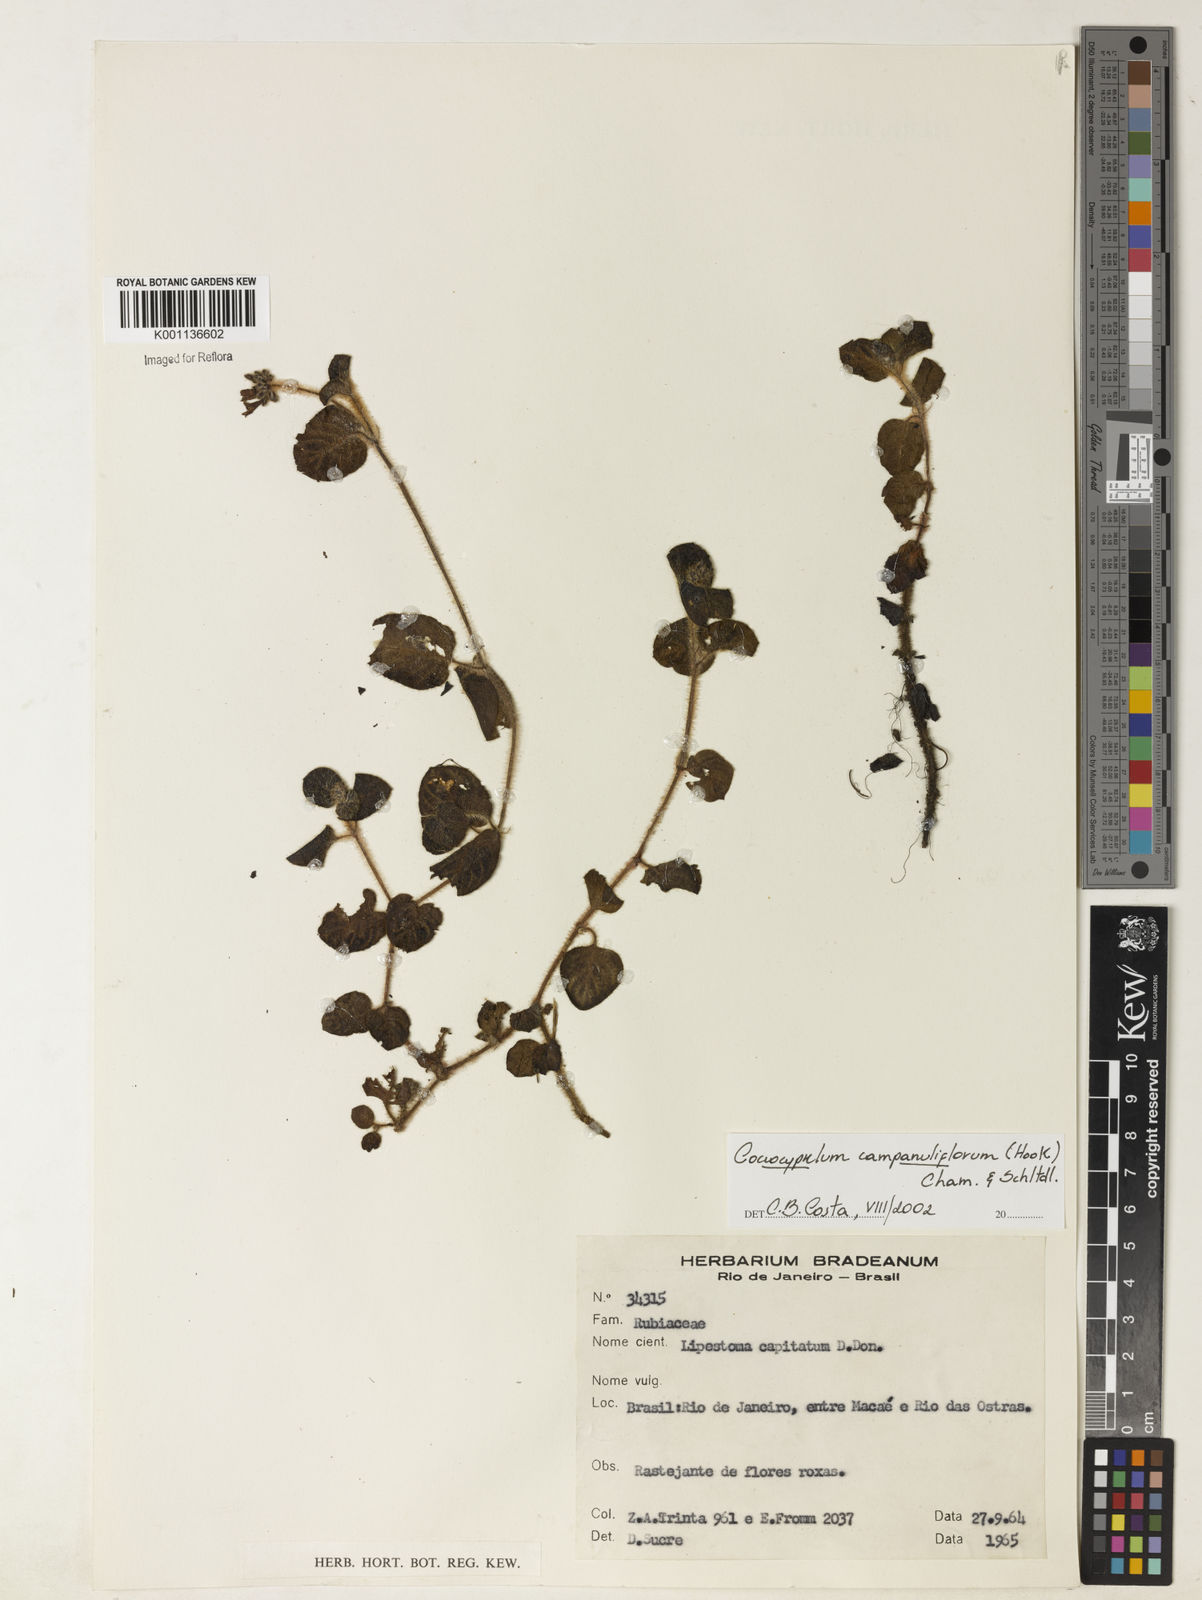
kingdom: Plantae
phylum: Tracheophyta
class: Magnoliopsida
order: Gentianales
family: Rubiaceae
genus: Coccocypselum
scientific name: Coccocypselum capitatum
